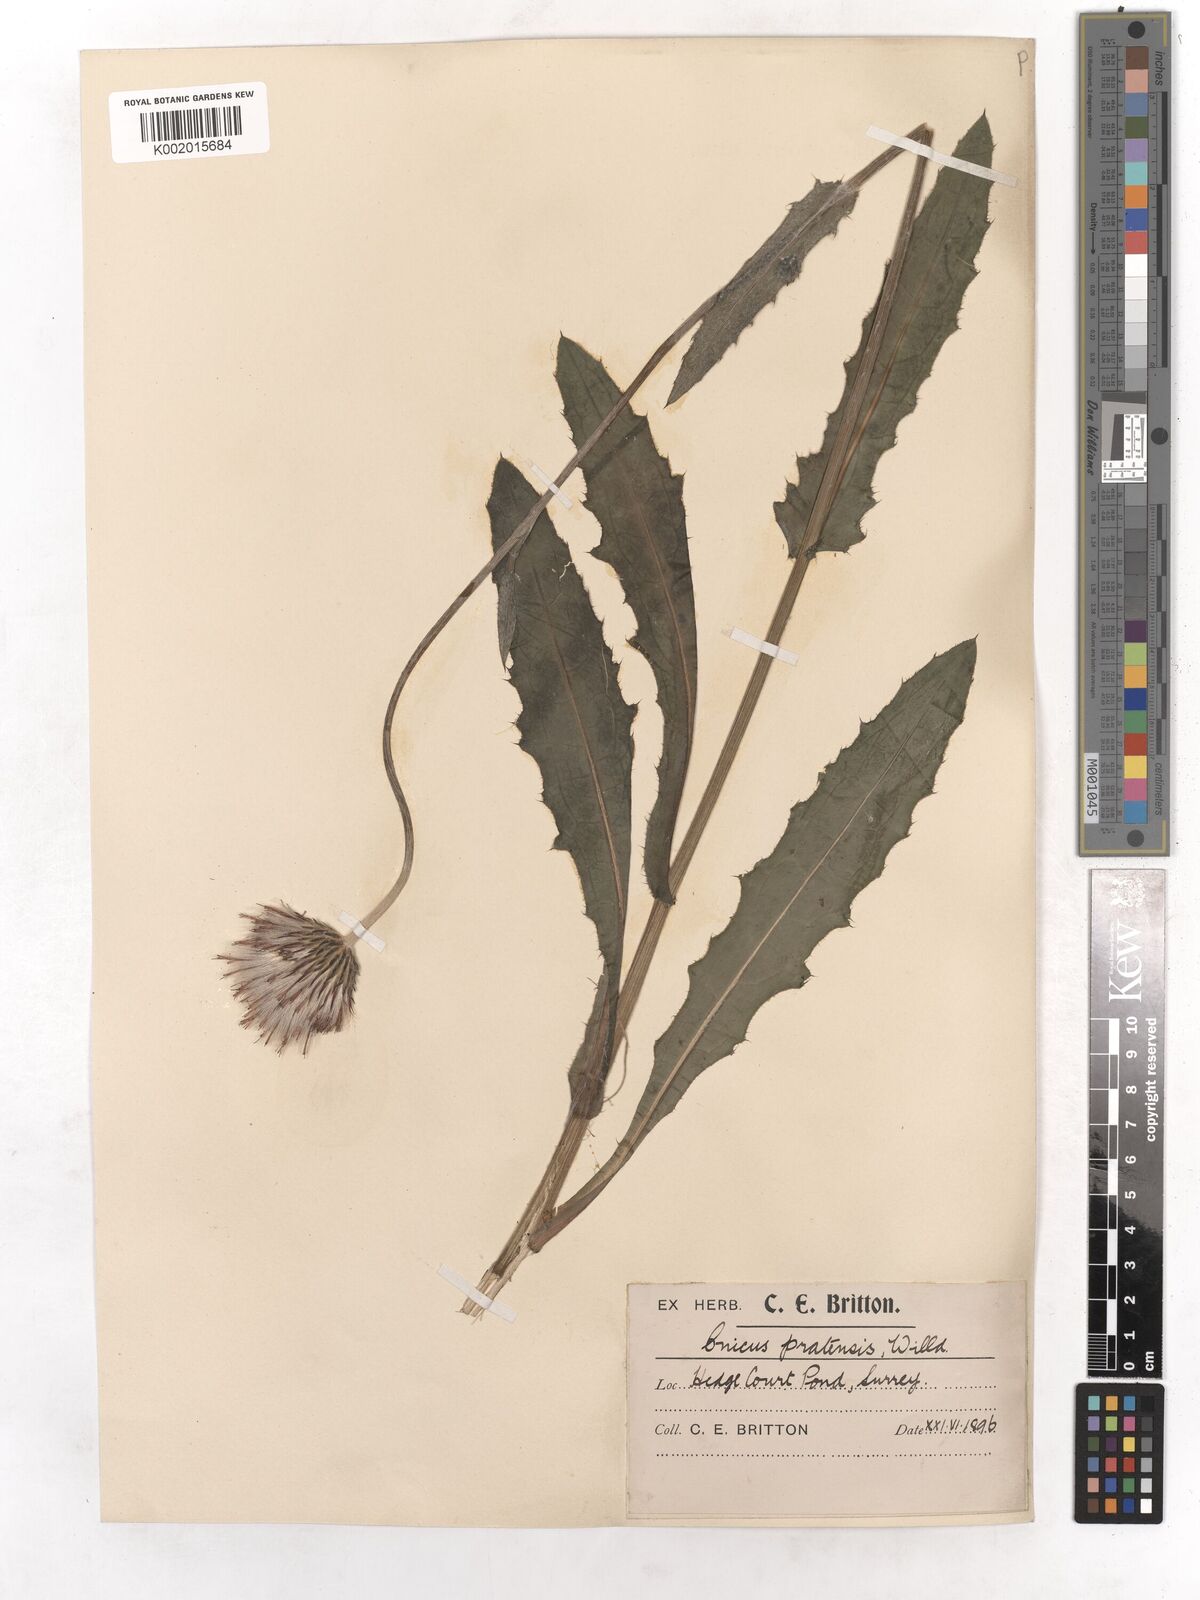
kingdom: Plantae
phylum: Tracheophyta
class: Magnoliopsida
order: Asterales
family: Asteraceae
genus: Cirsium
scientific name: Cirsium dissectum
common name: Meadow thistle
